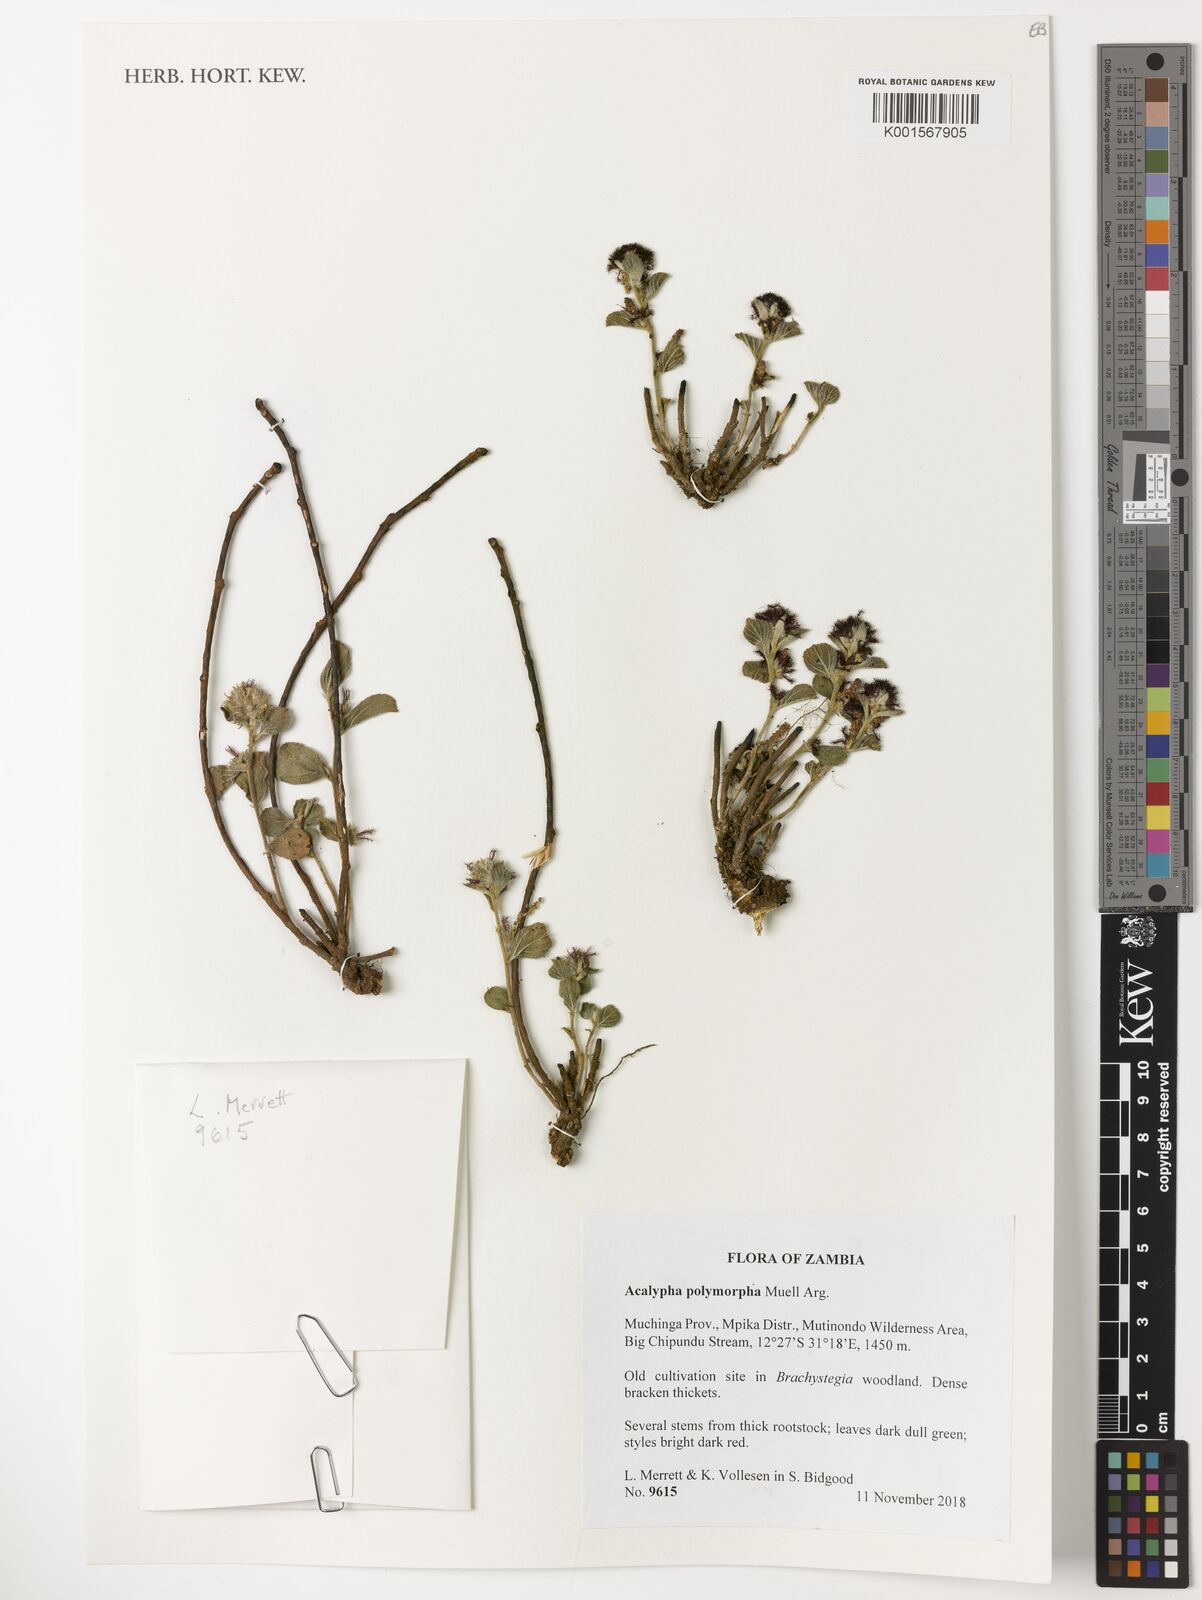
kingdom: Plantae
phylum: Tracheophyta
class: Magnoliopsida
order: Malpighiales
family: Euphorbiaceae
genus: Acalypha
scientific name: Acalypha polymorpha
